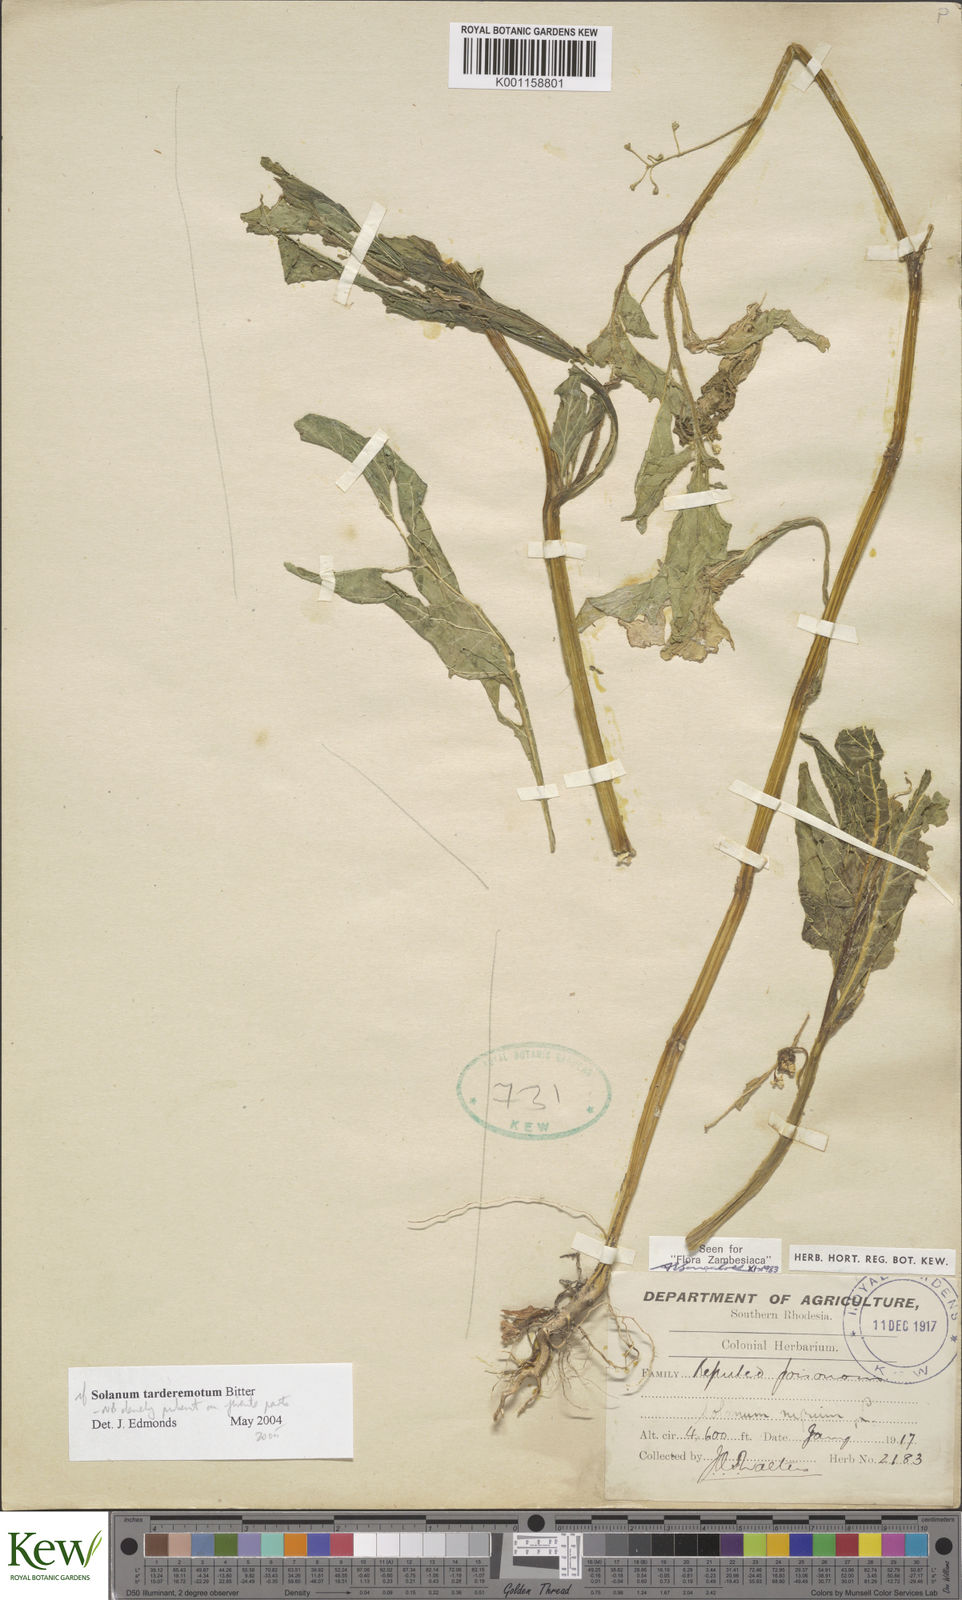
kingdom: Plantae
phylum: Tracheophyta
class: Magnoliopsida
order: Solanales
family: Solanaceae
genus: Solanum
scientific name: Solanum tarderemotum
